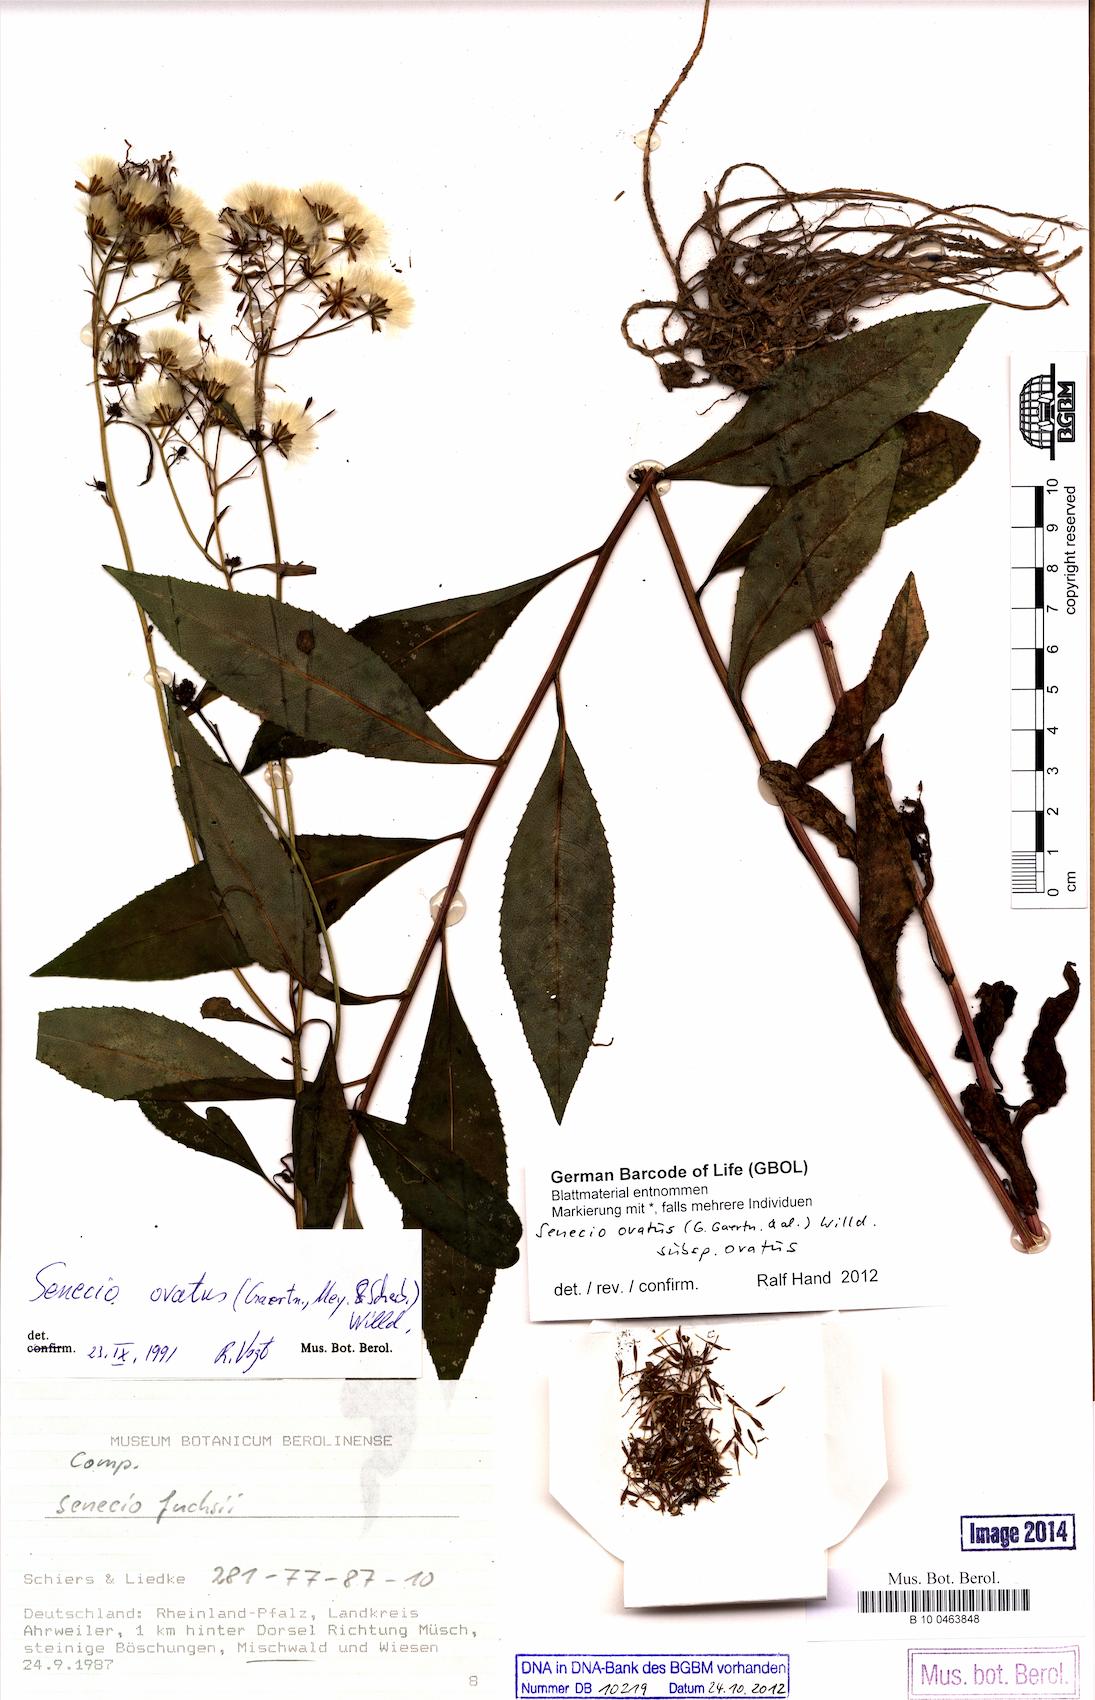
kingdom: Plantae
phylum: Tracheophyta
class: Magnoliopsida
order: Asterales
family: Asteraceae
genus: Senecio
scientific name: Senecio ovatus
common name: Wood ragwort
